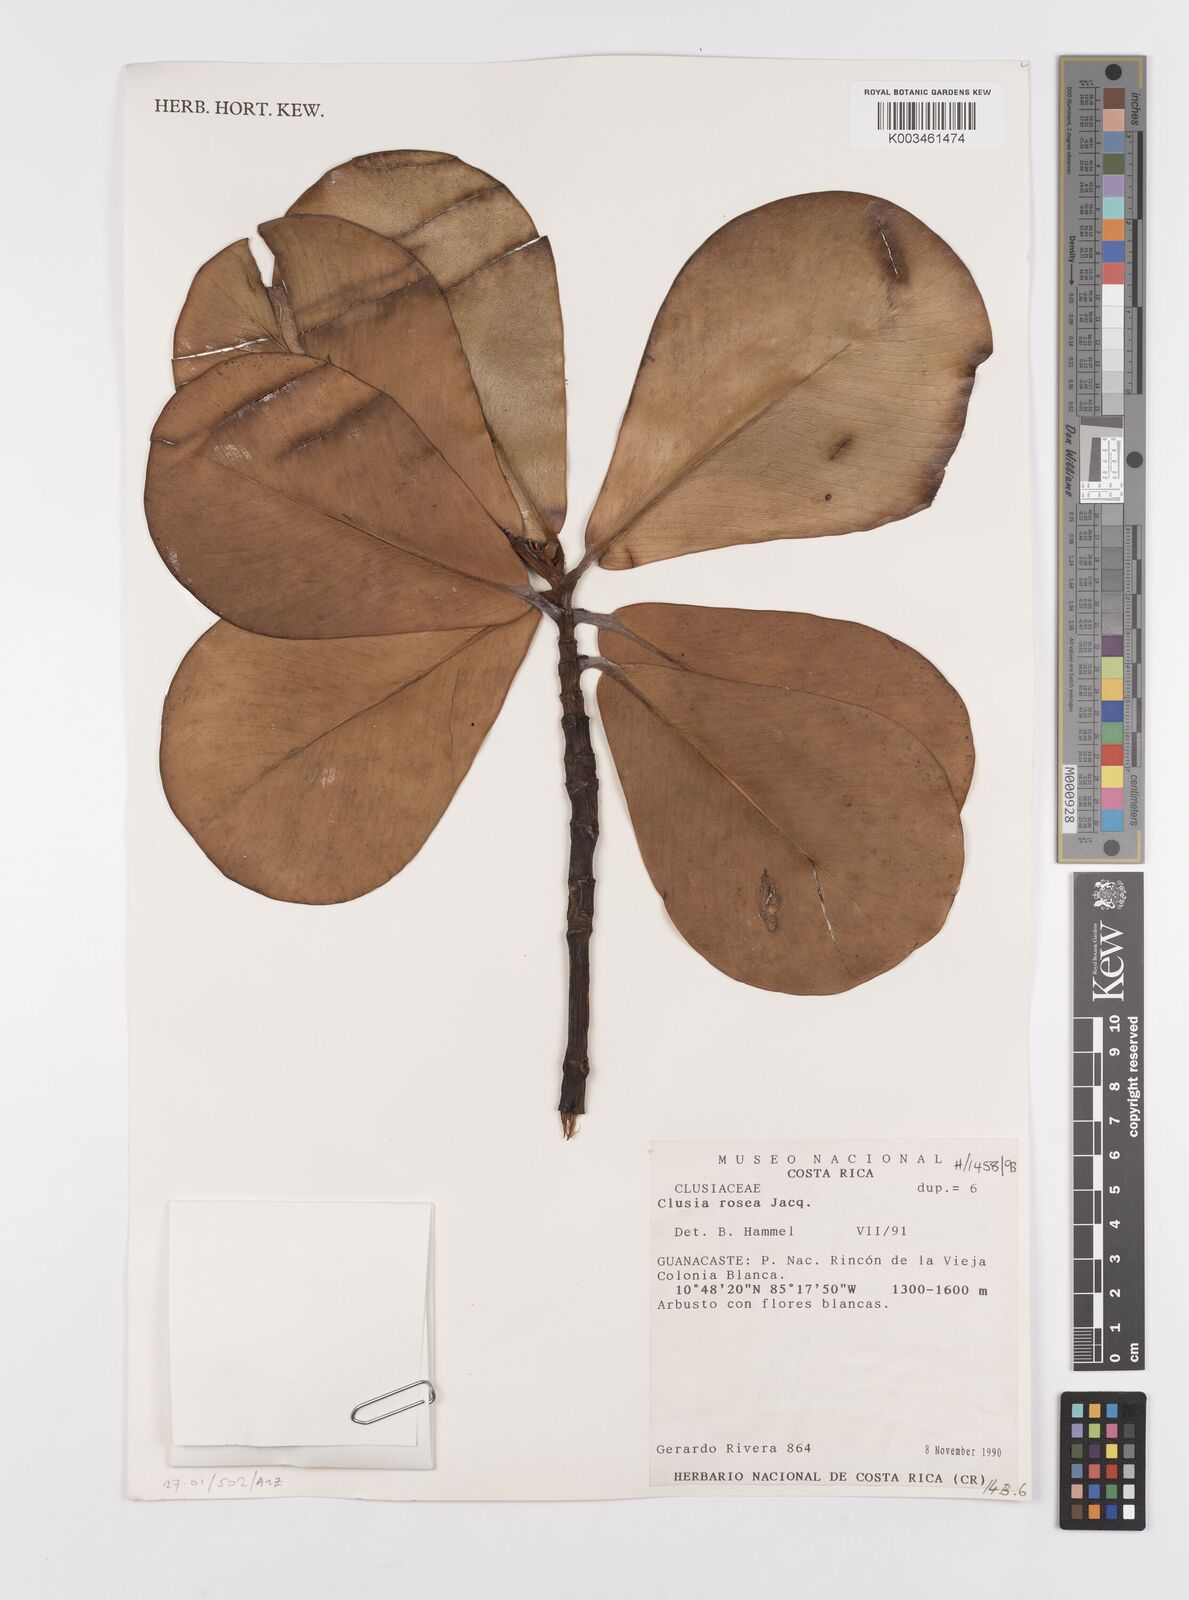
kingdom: Plantae
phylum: Tracheophyta
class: Magnoliopsida
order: Malpighiales
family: Clusiaceae
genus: Clusia
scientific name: Clusia rosea
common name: Scotch attorney
